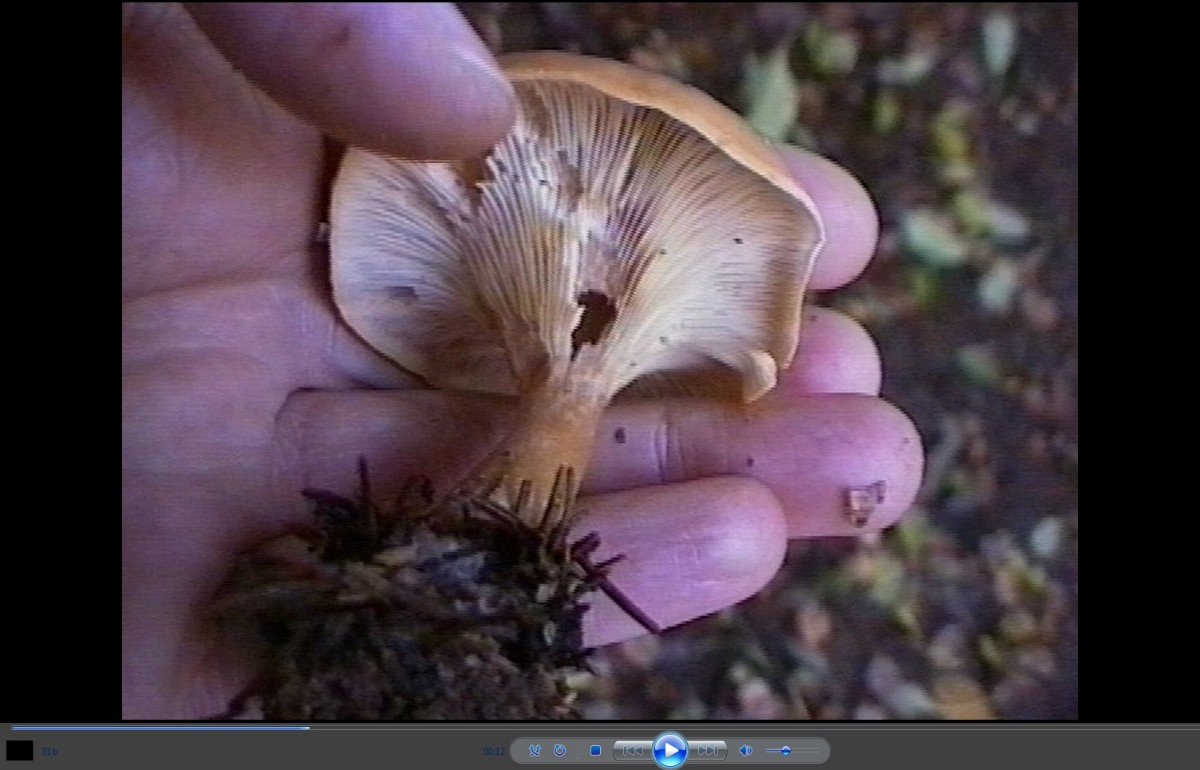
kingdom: Fungi
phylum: Basidiomycota
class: Agaricomycetes
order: Agaricales
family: Tricholomataceae
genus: Paralepista
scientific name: Paralepista flaccida
